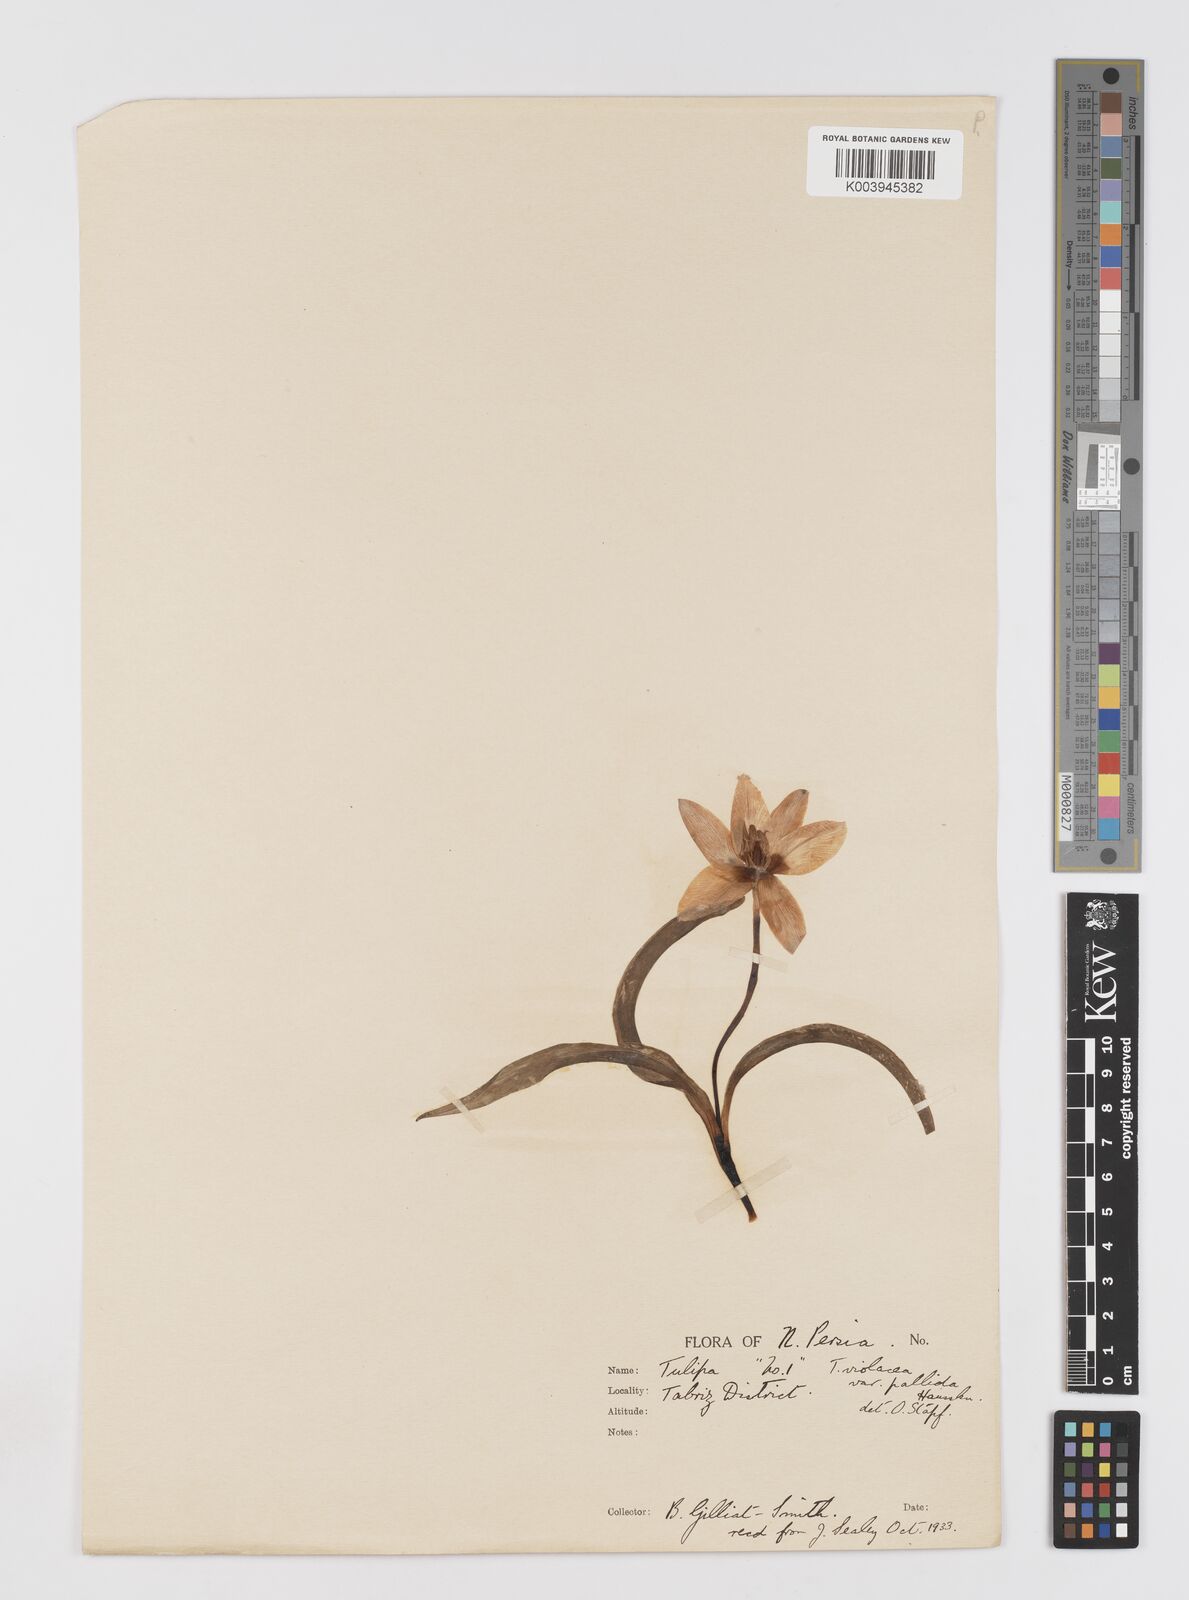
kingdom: Plantae
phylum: Tracheophyta
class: Liliopsida
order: Liliales
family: Liliaceae
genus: Tulipa
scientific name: Tulipa humilis
